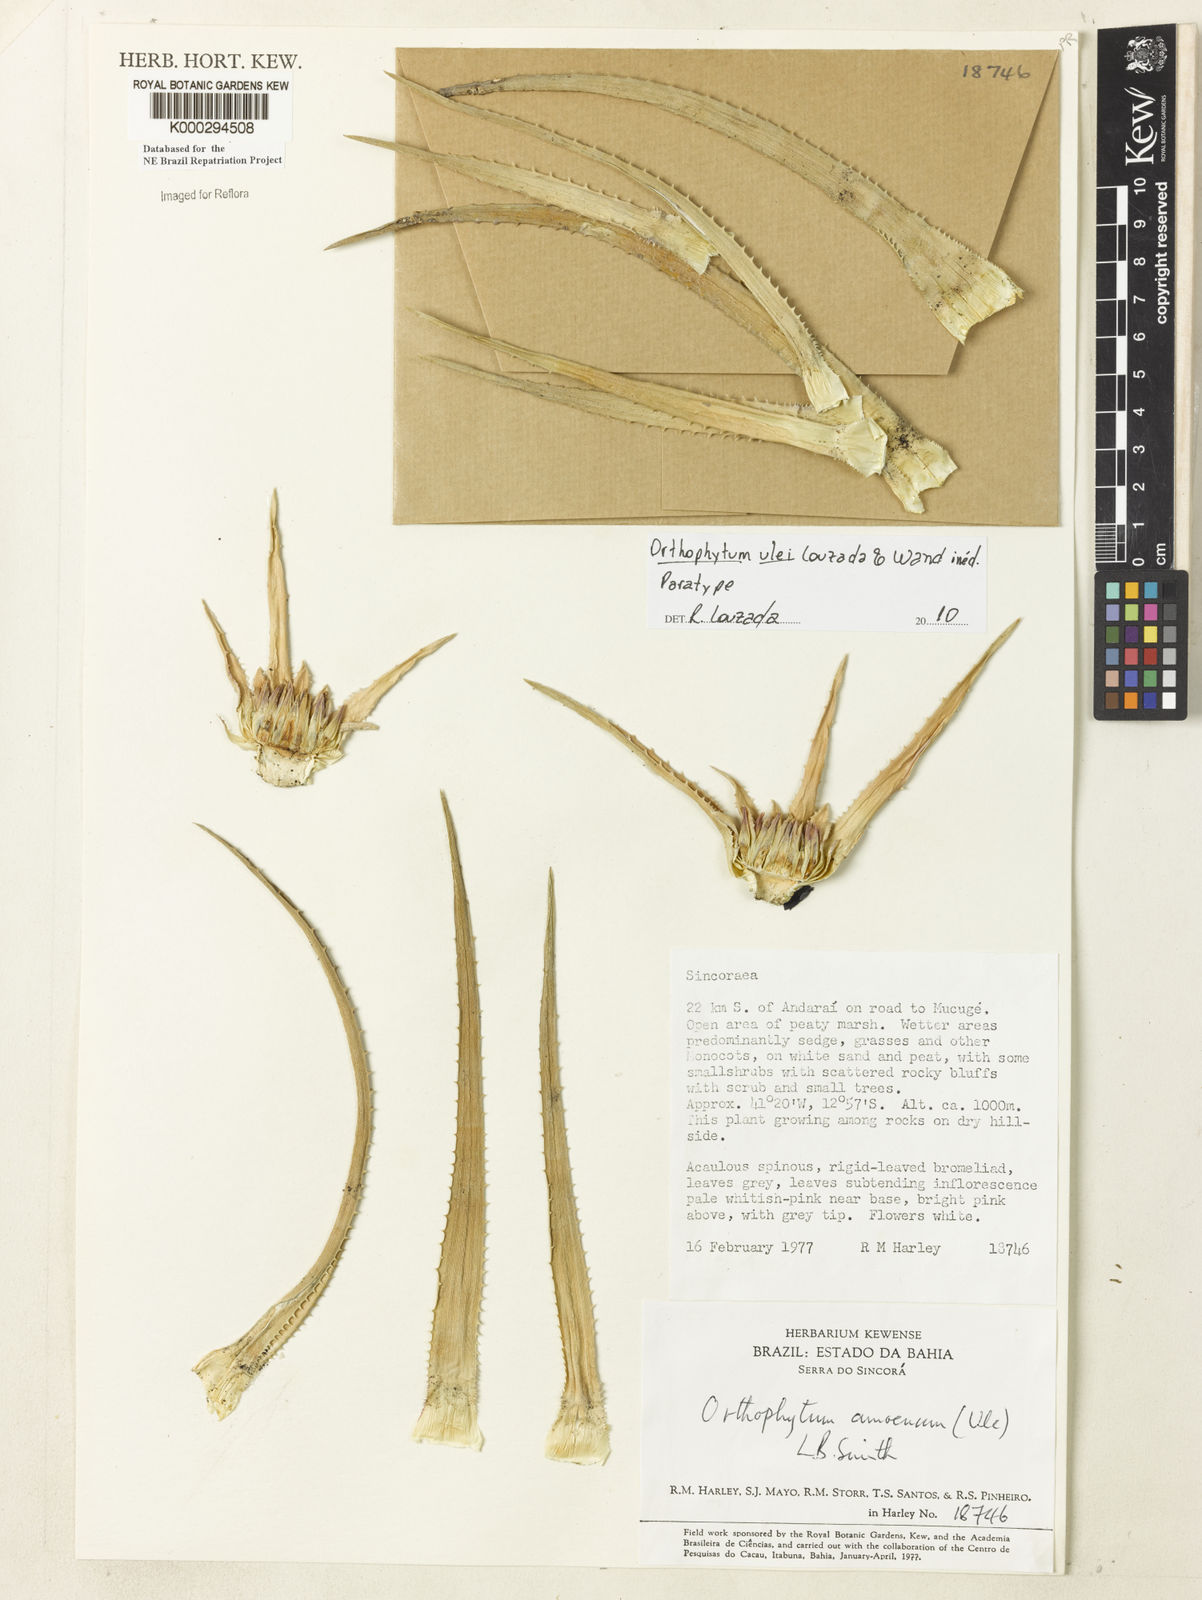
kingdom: Plantae
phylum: Tracheophyta
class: Liliopsida
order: Poales
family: Bromeliaceae
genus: Sincoraea
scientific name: Sincoraea amoena
